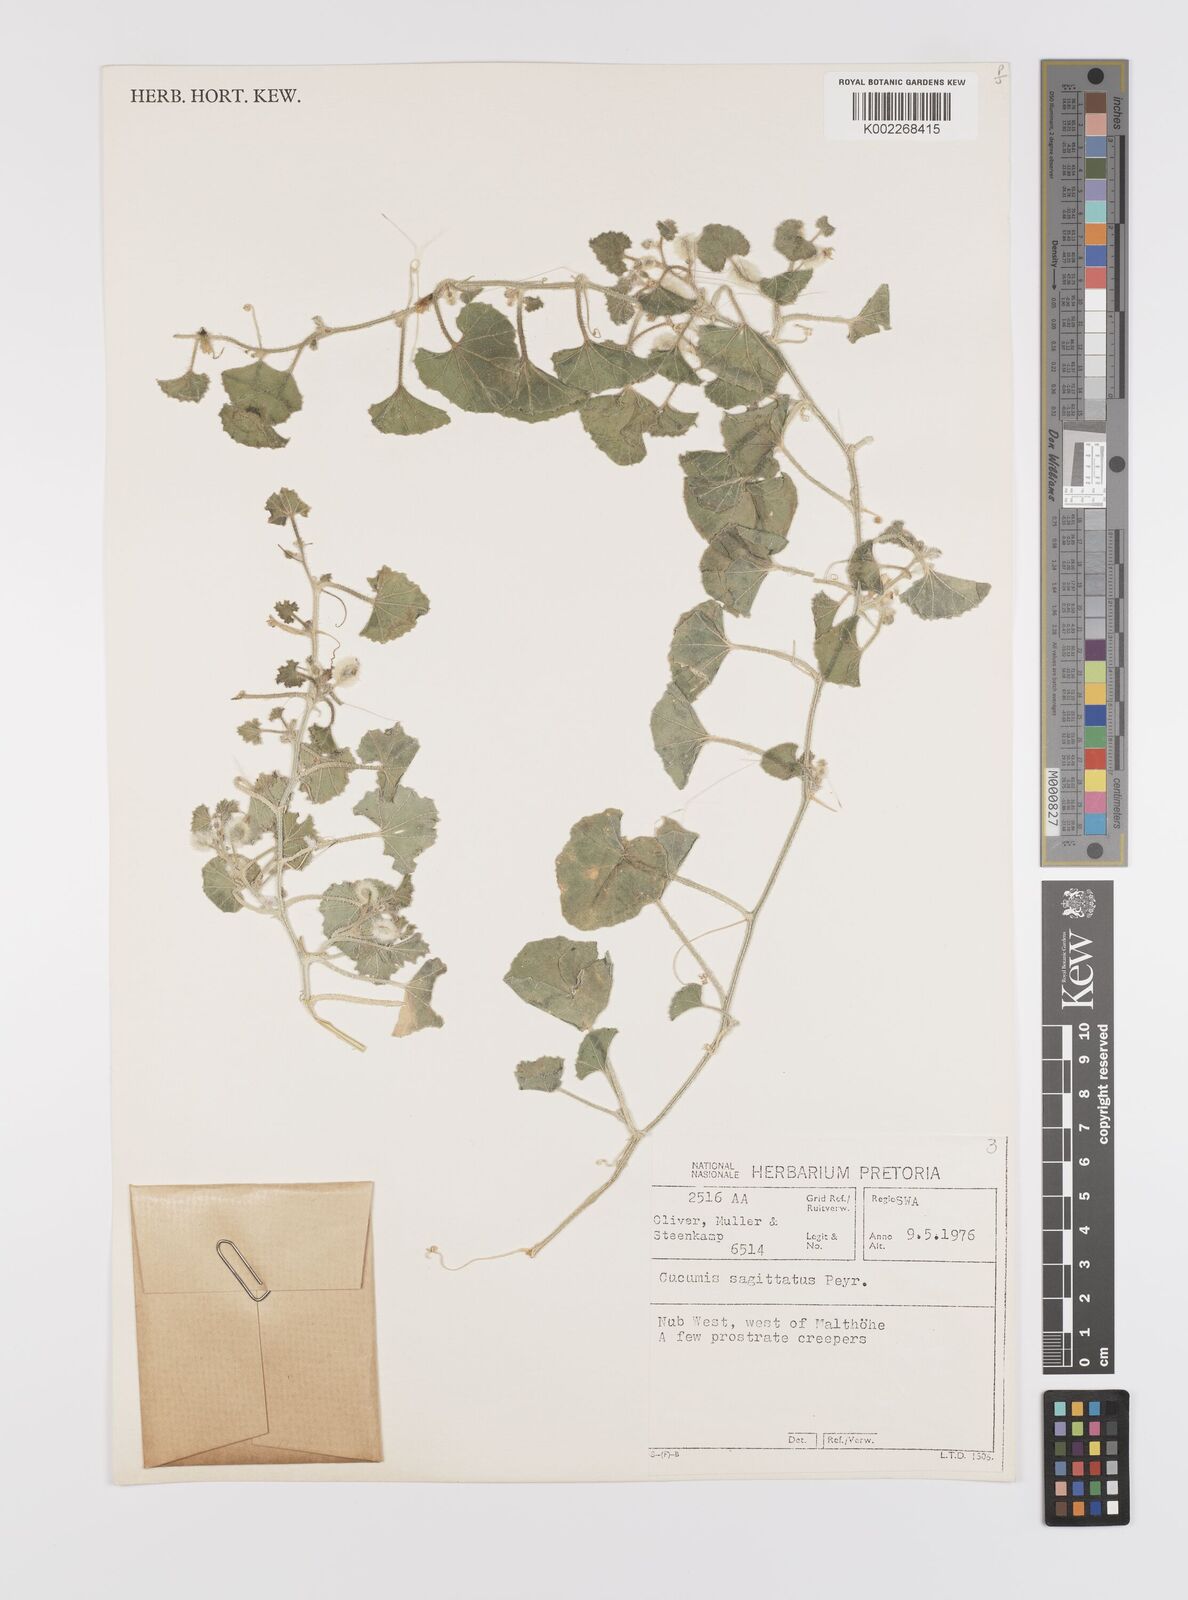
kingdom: Plantae
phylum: Tracheophyta
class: Magnoliopsida
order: Cucurbitales
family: Cucurbitaceae
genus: Cucumis
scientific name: Cucumis sagittatus
